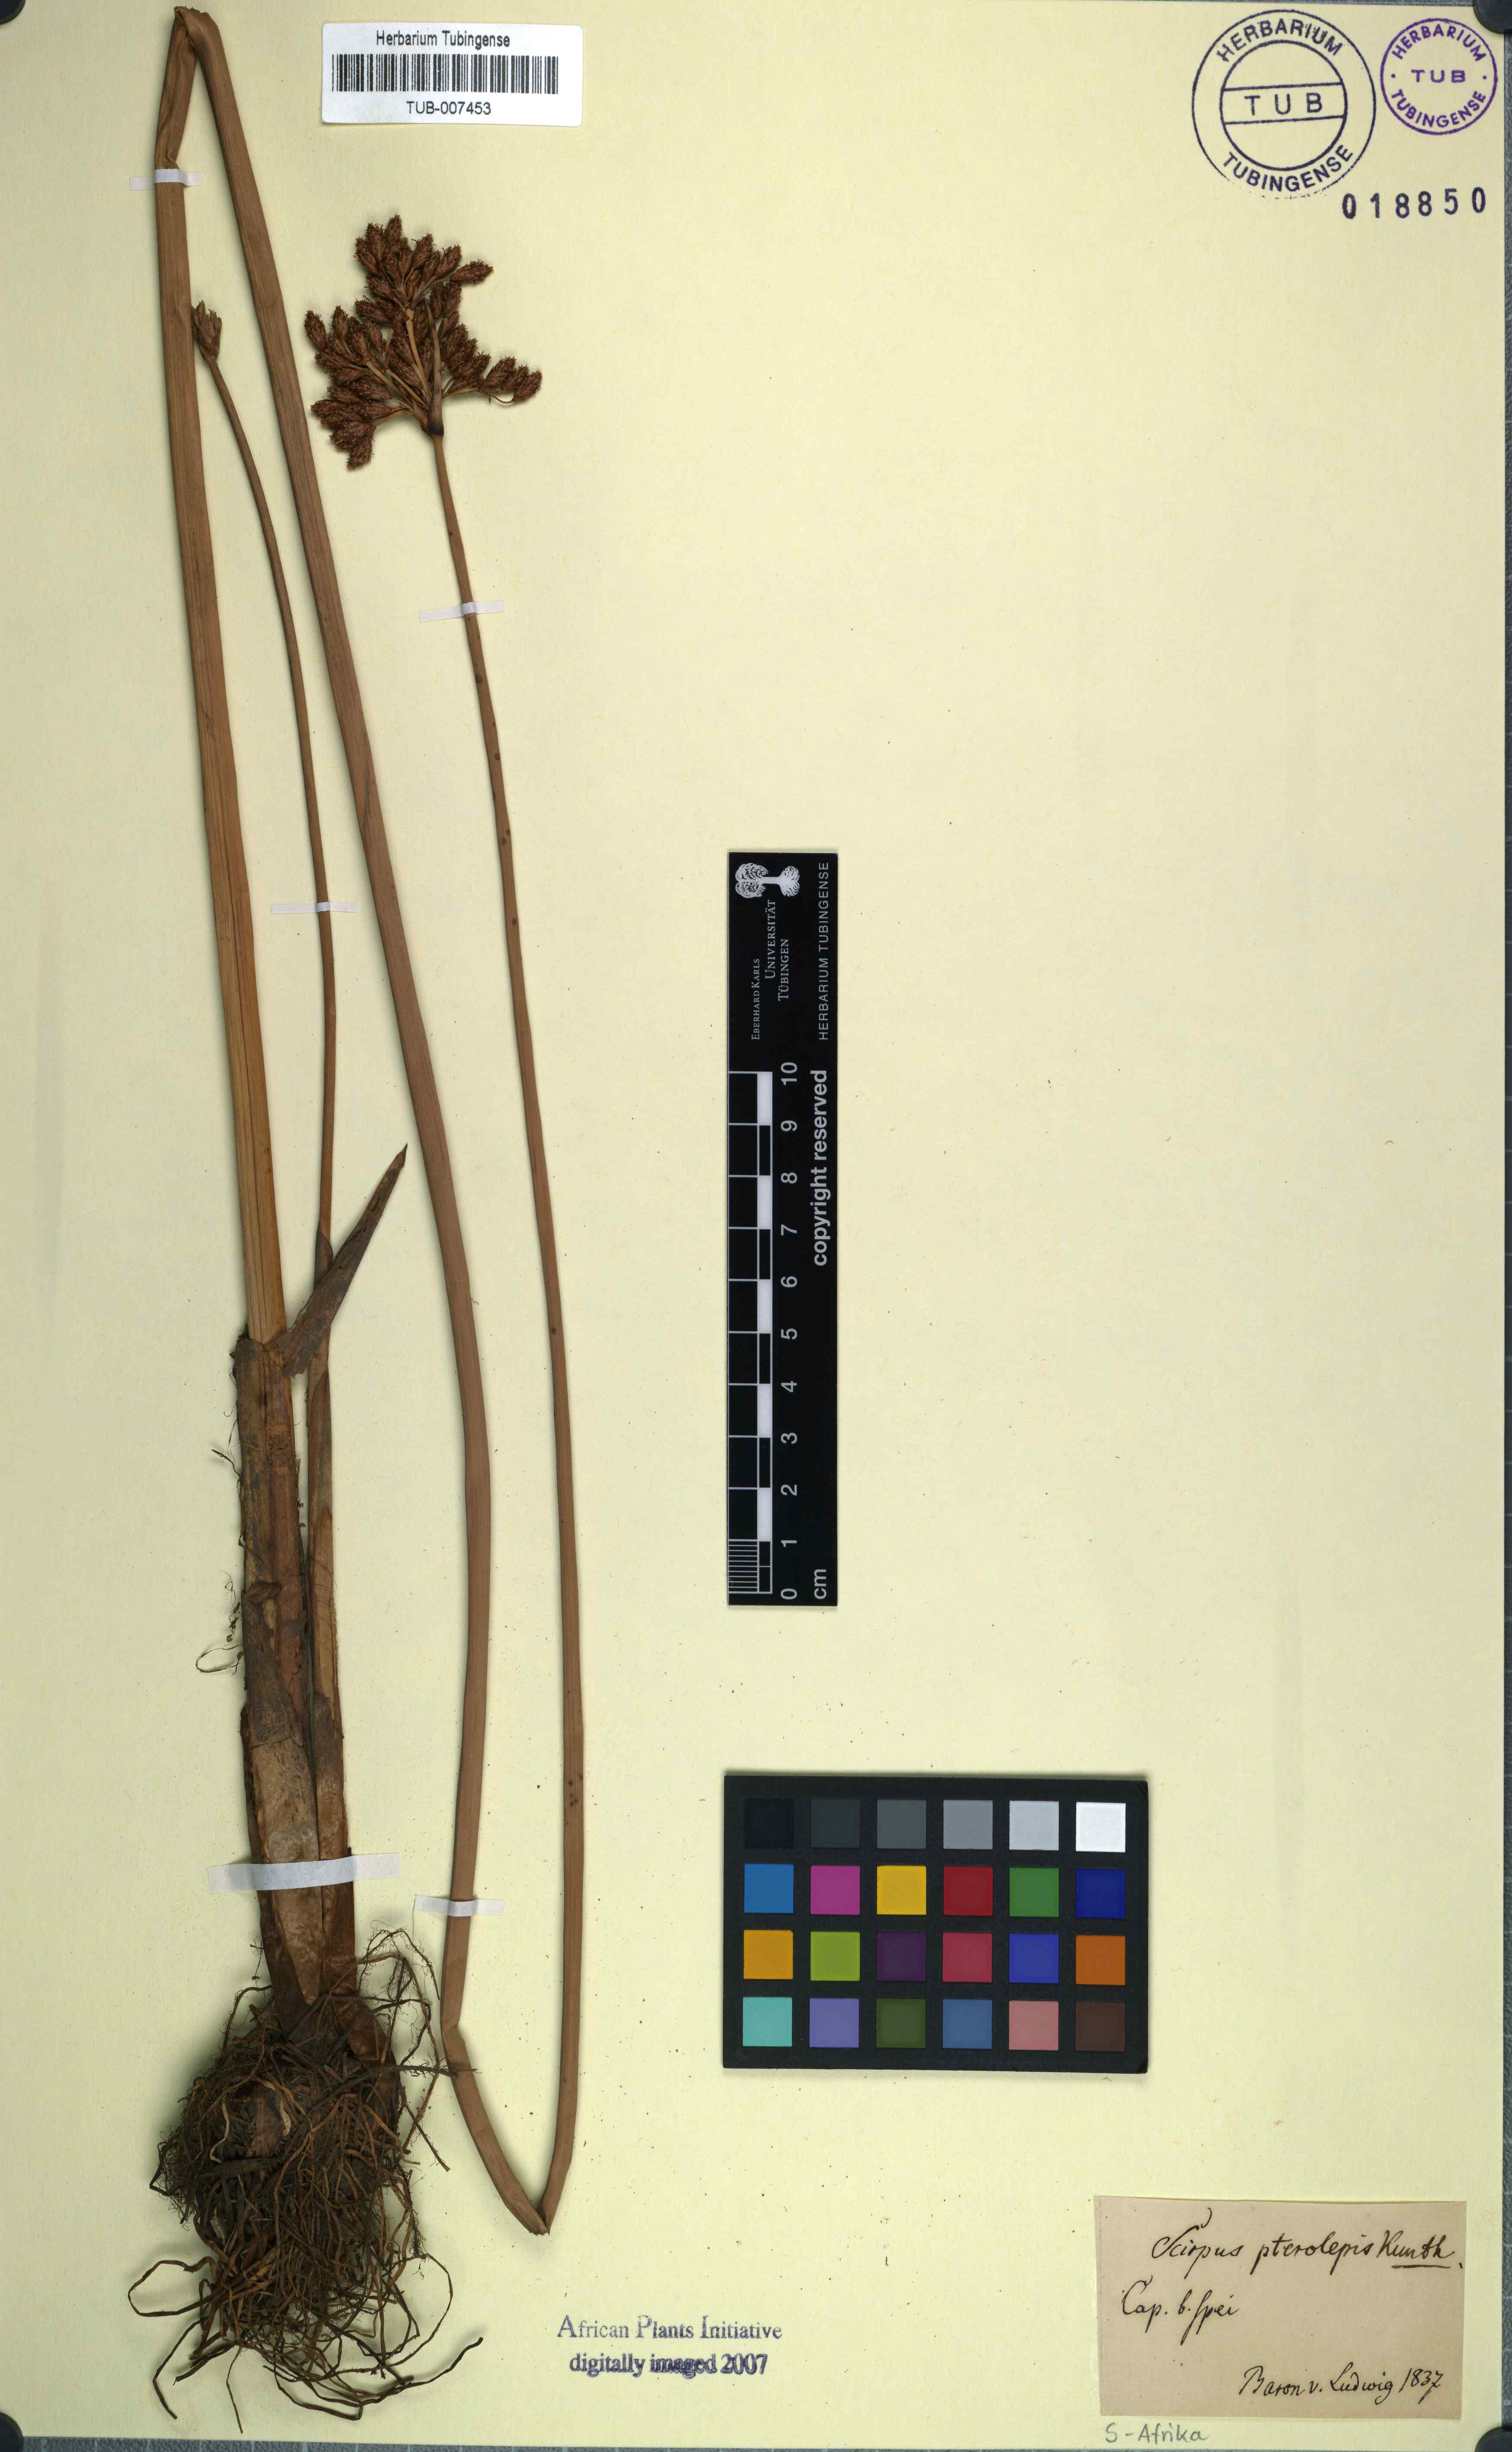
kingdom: Plantae
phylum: Tracheophyta
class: Liliopsida
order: Poales
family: Cyperaceae
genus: Schoenoplectus
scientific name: Schoenoplectus litoralis
